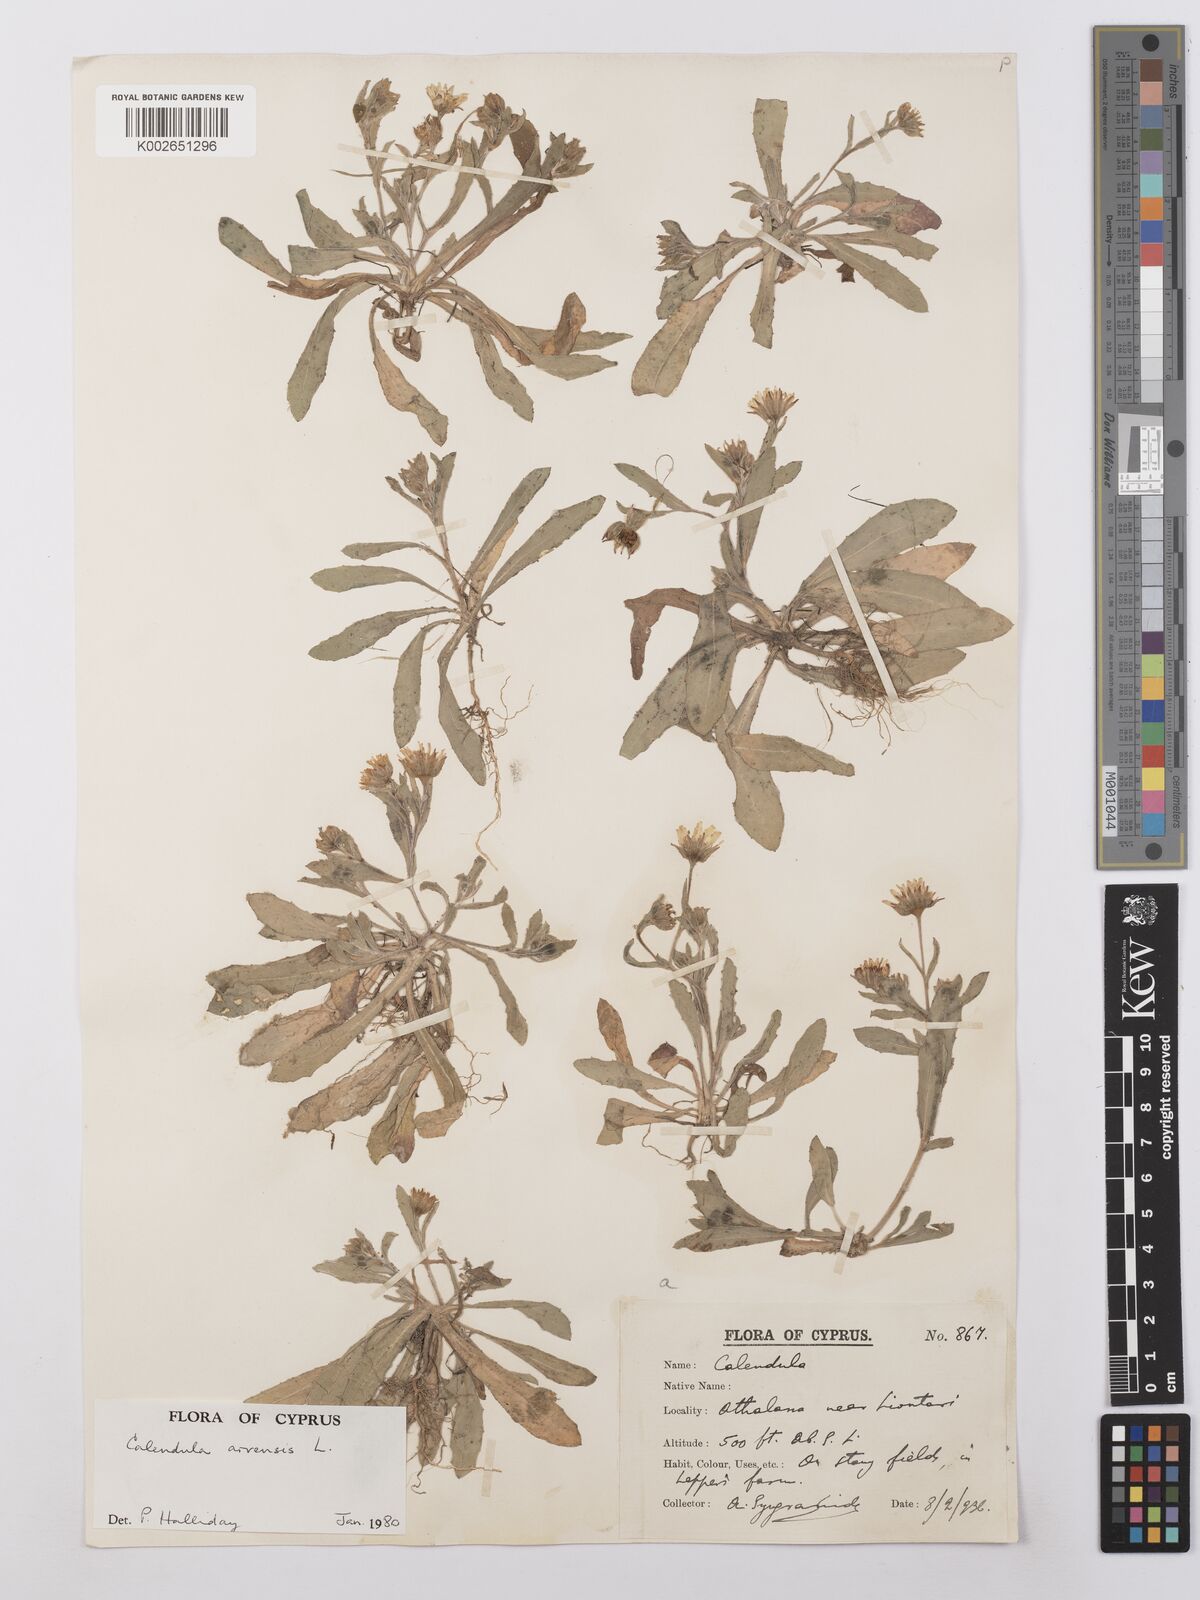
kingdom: Plantae
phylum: Tracheophyta
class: Magnoliopsida
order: Asterales
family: Asteraceae
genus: Calendula
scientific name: Calendula arvensis
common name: Field marigold
